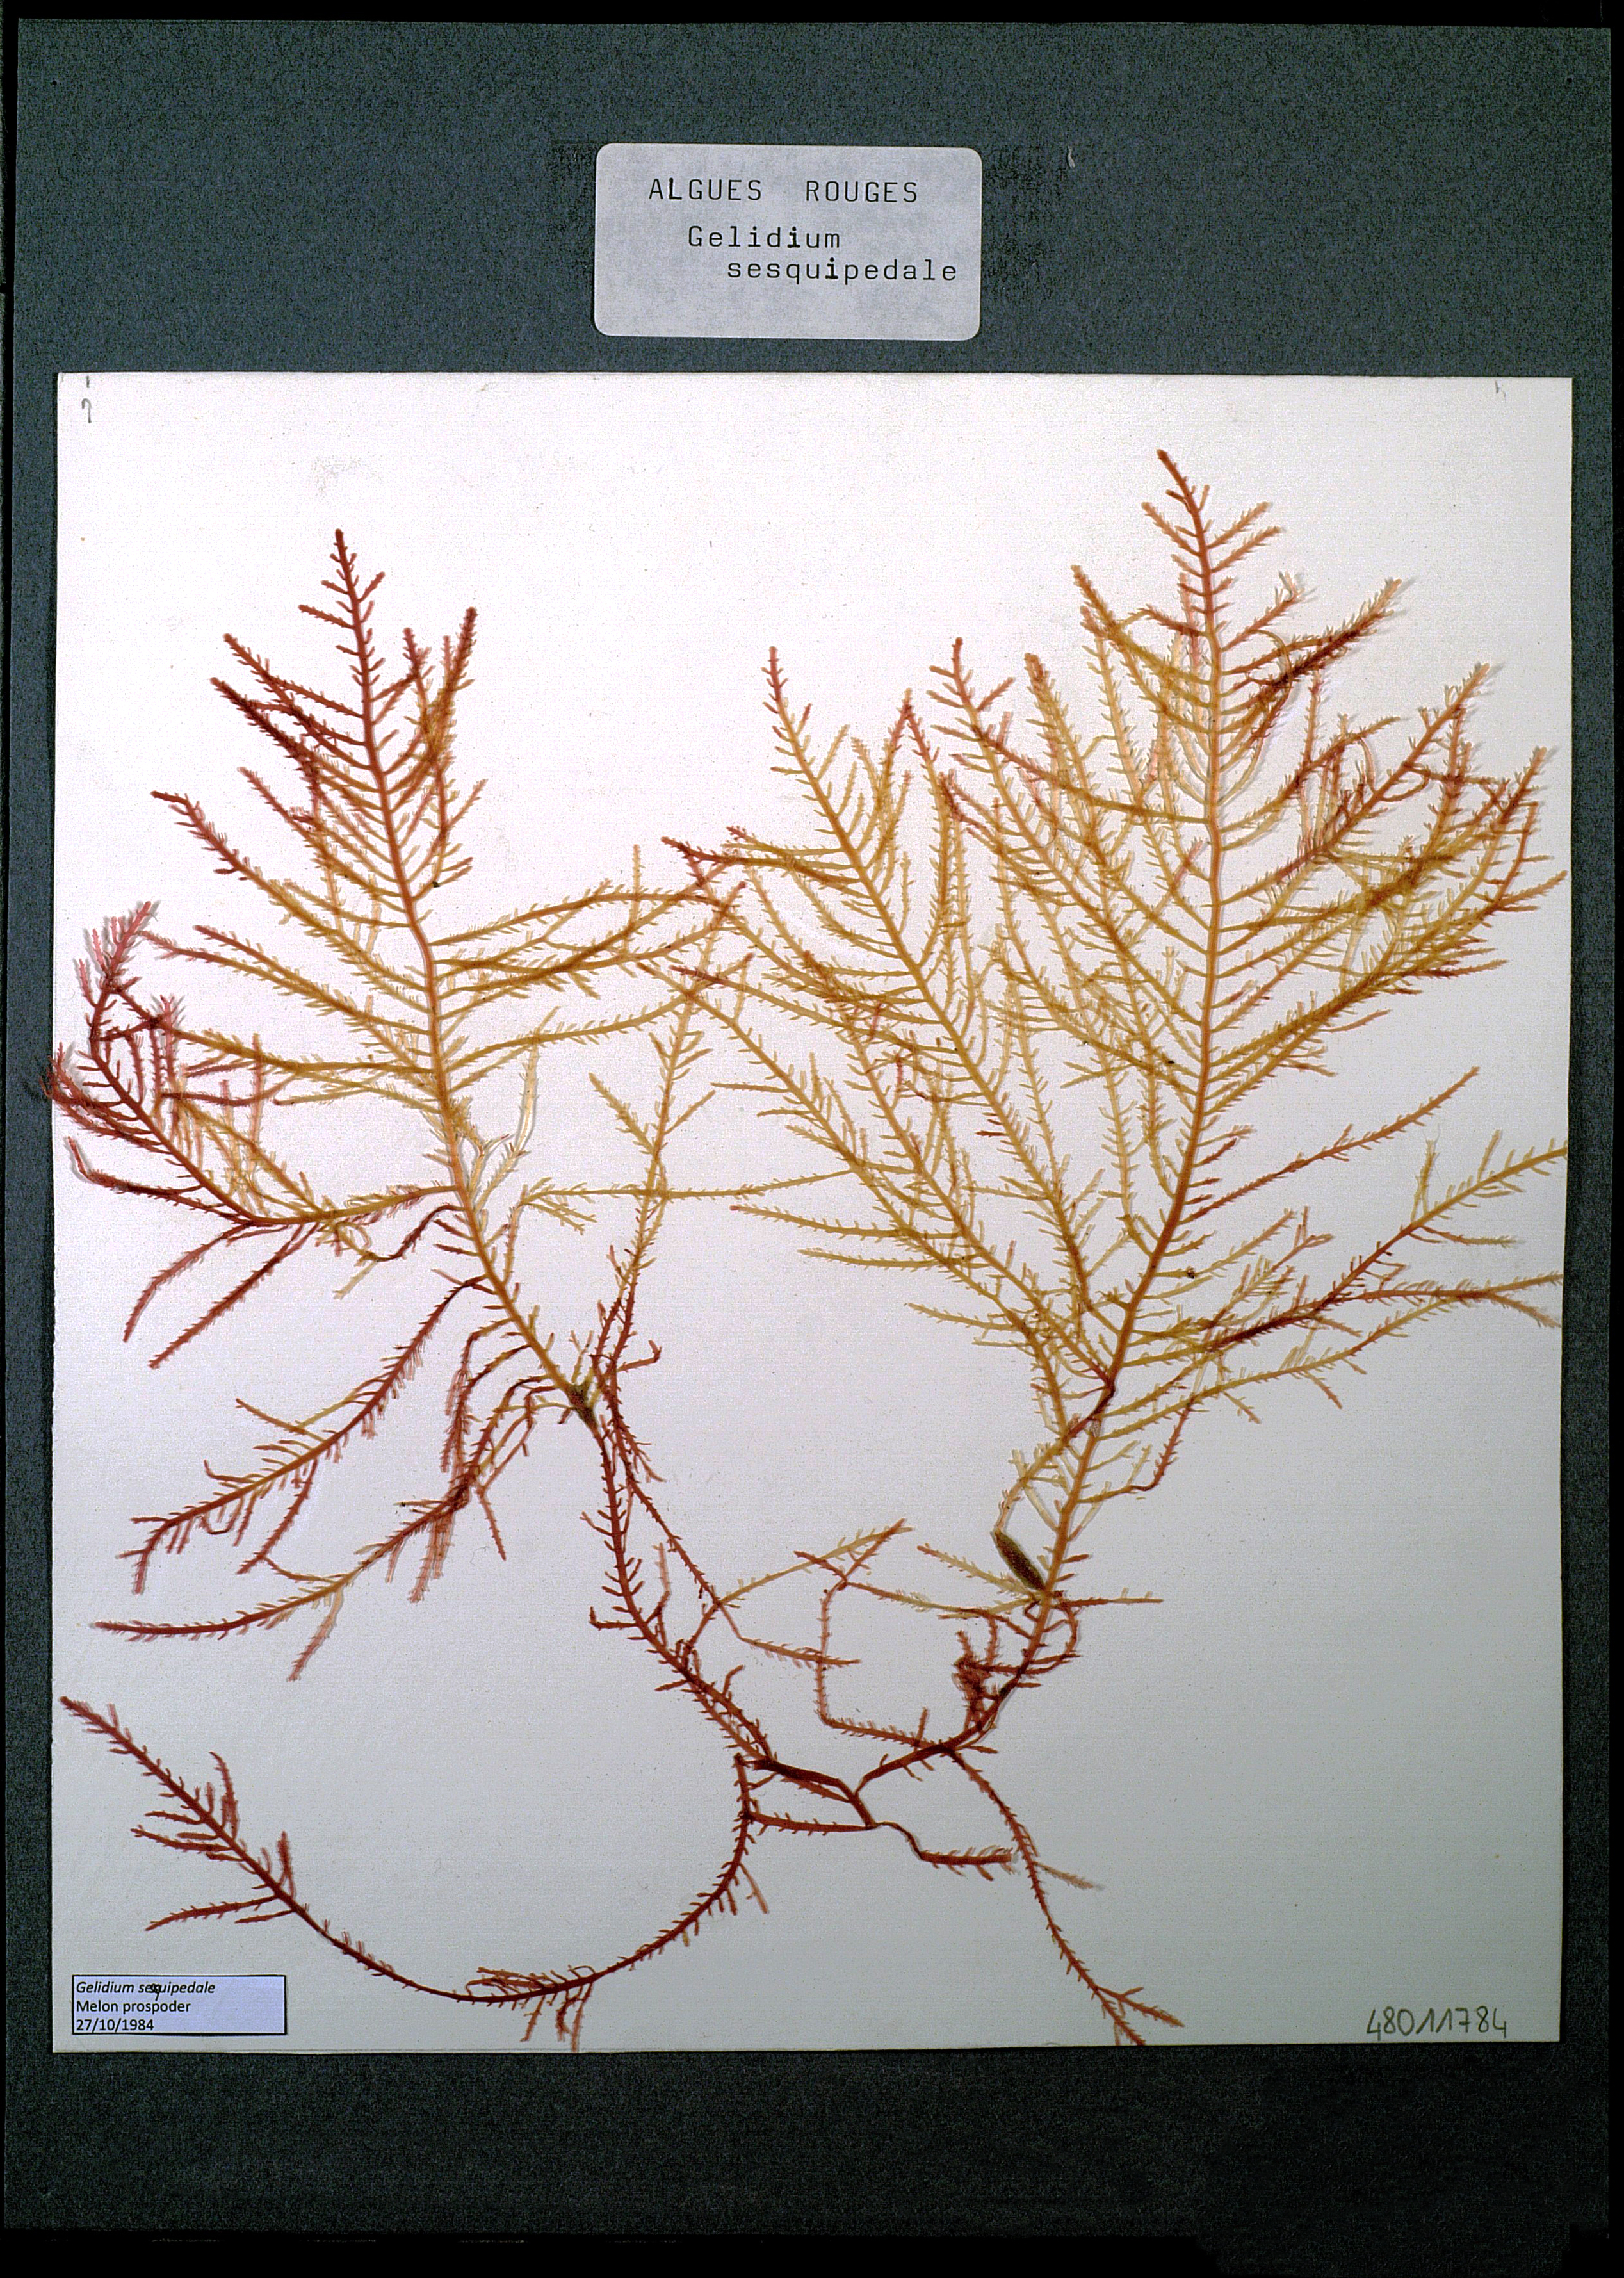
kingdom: Plantae
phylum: Rhodophyta
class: Florideophyceae
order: Gelidiales
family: Gelidiaceae
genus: Gelidium
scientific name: Gelidium spinosum
